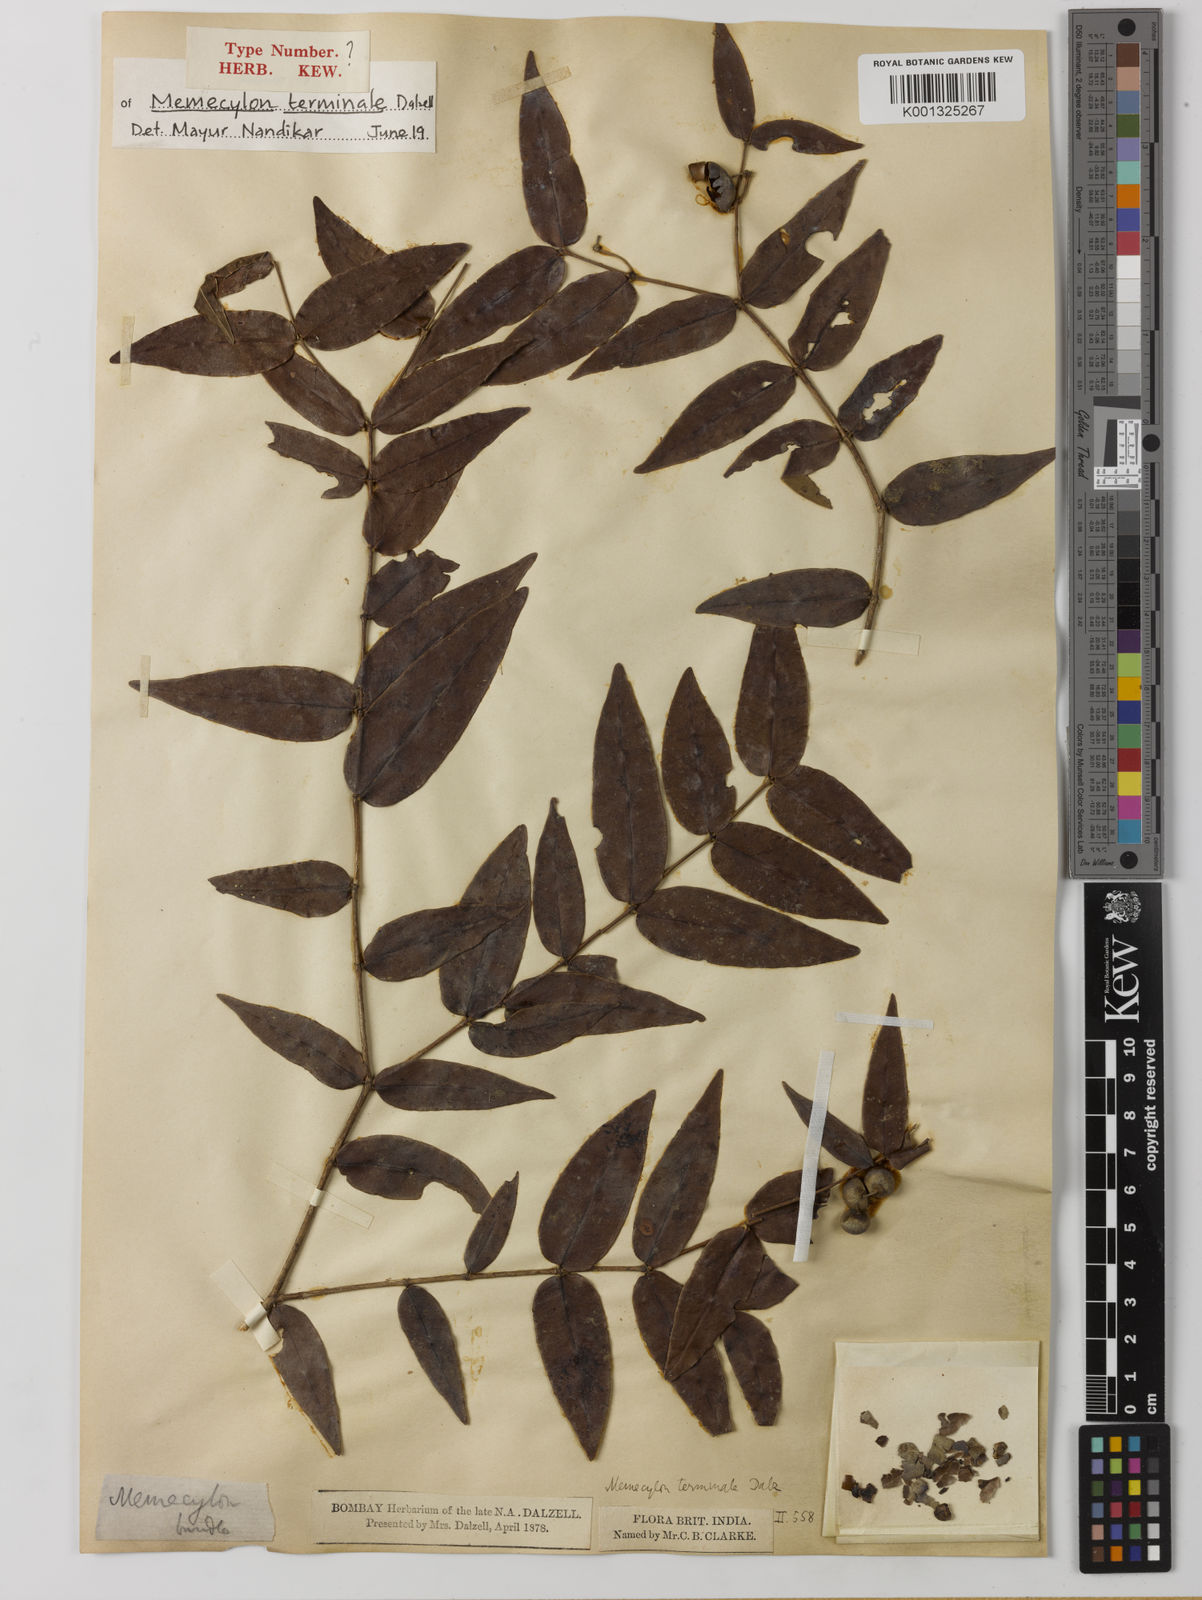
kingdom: Plantae
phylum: Tracheophyta
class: Magnoliopsida
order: Myrtales
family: Melastomataceae
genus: Memecylon
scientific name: Memecylon terminale
